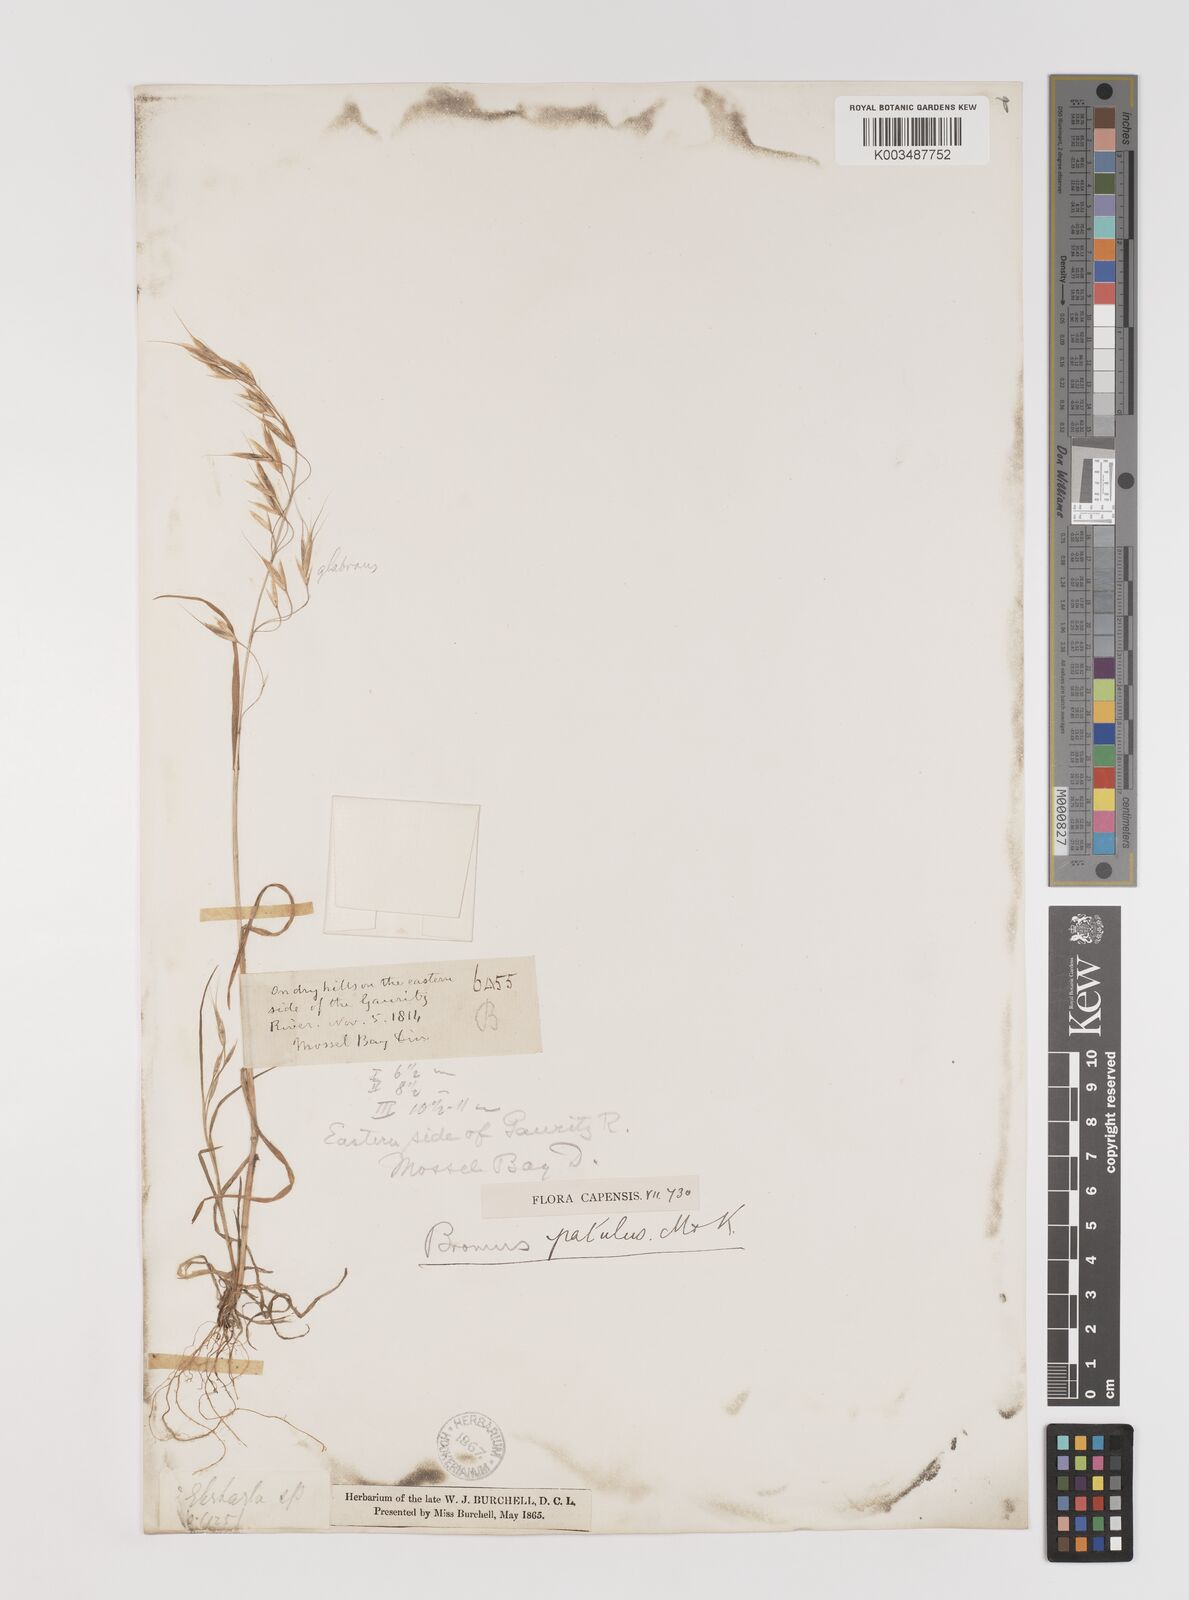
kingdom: Plantae
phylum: Tracheophyta
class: Liliopsida
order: Poales
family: Poaceae
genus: Bromus
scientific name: Bromus pectinatus
